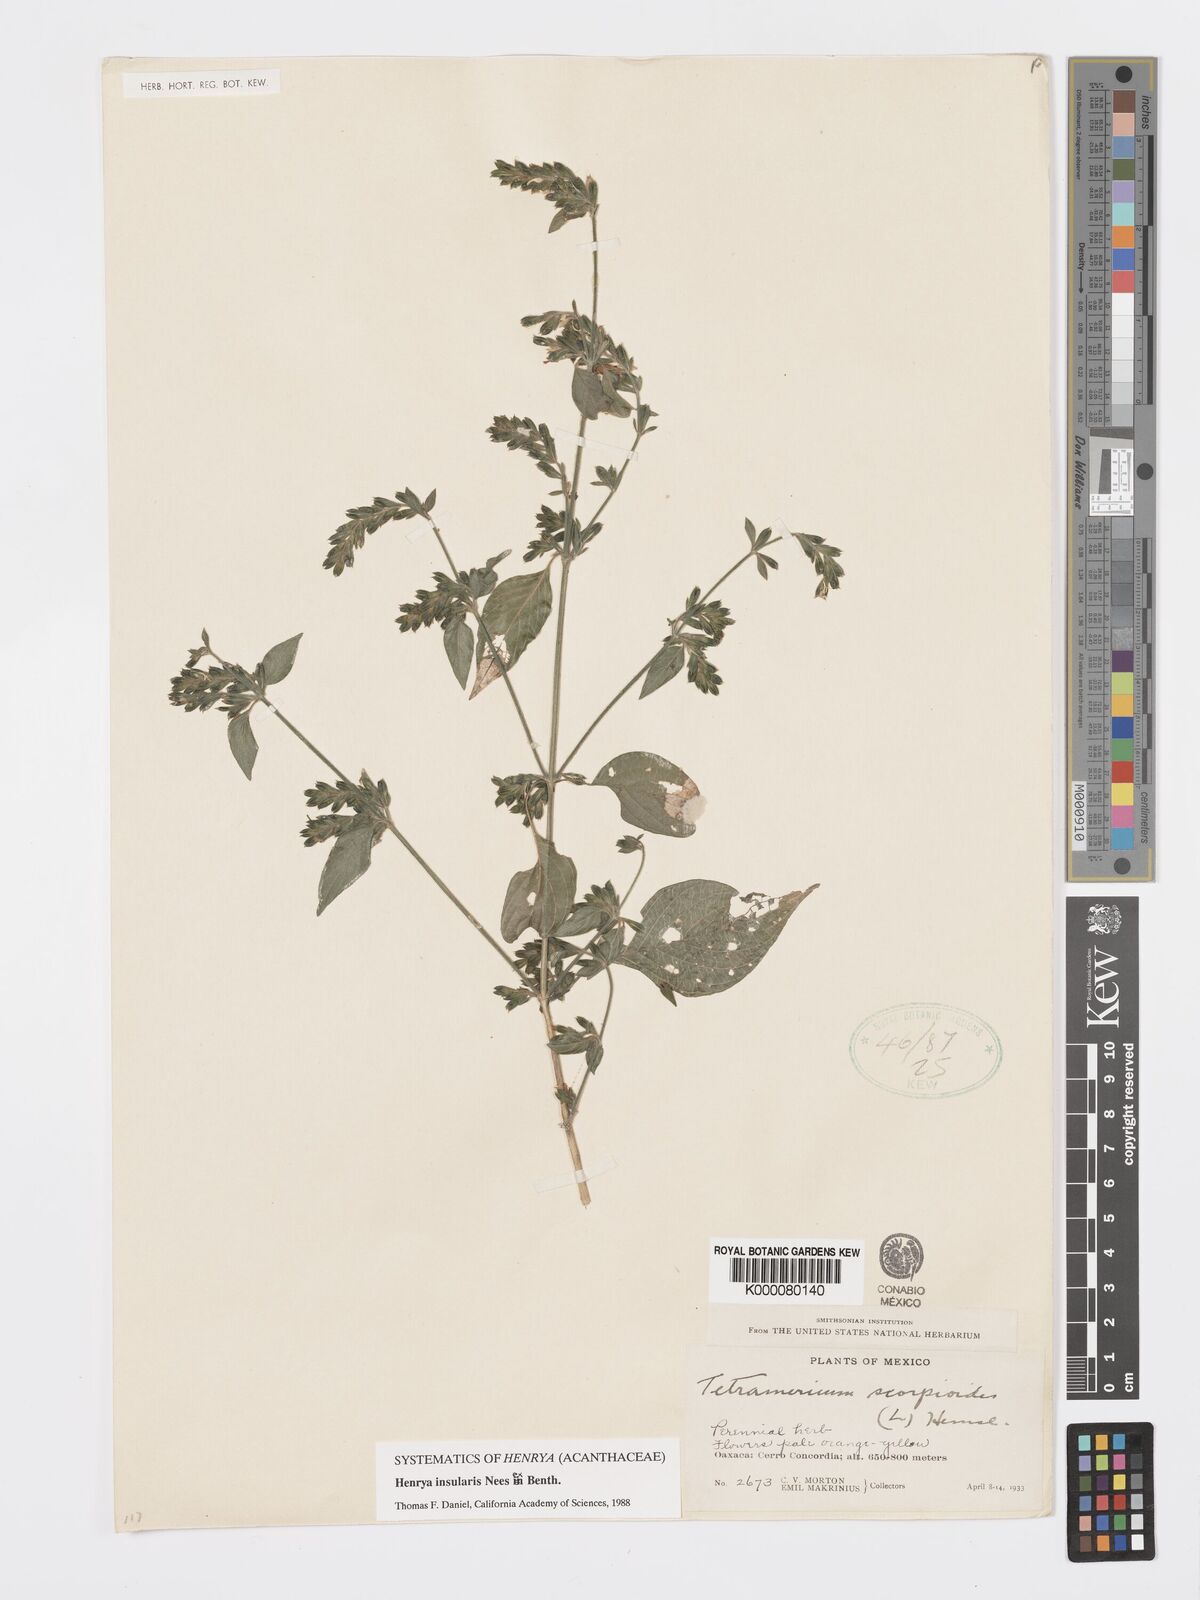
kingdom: Plantae
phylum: Tracheophyta
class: Magnoliopsida
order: Lamiales
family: Acanthaceae
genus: Henrya
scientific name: Henrya
